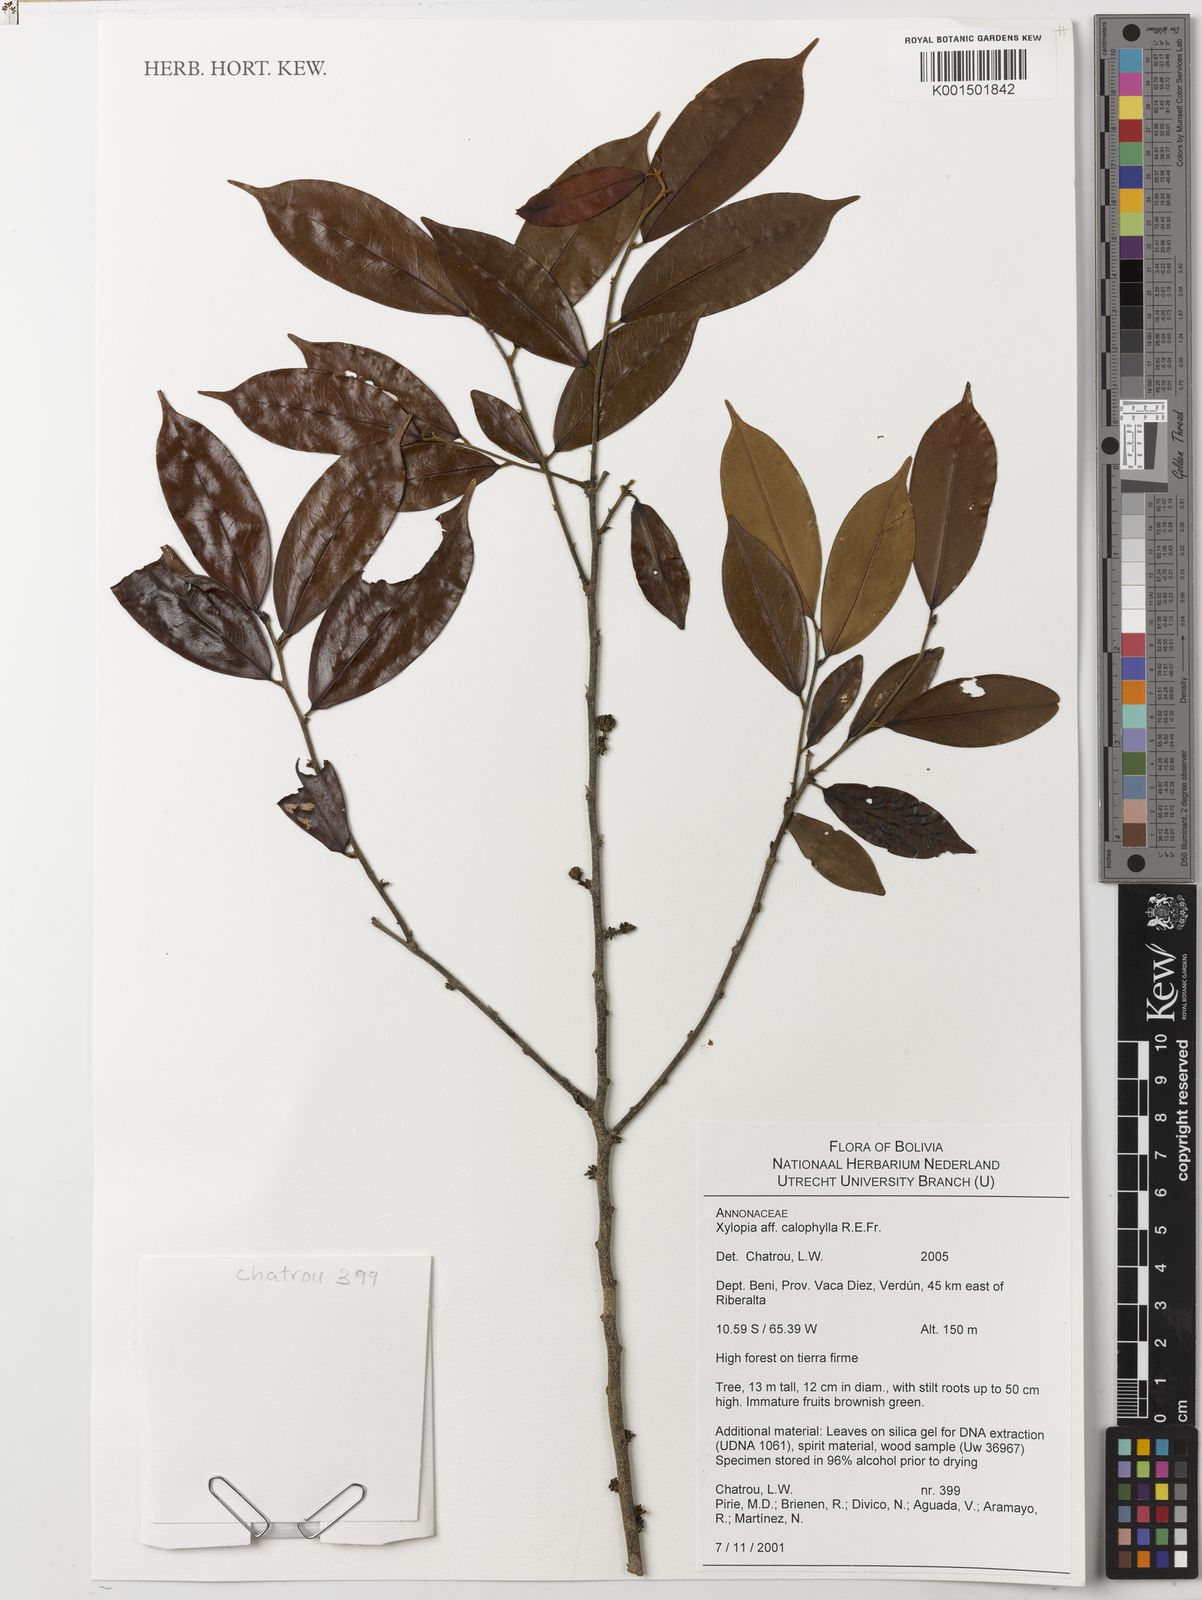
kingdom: Plantae
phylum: Tracheophyta
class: Magnoliopsida
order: Magnoliales
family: Annonaceae
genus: Xylopia
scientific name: Xylopia calophylla
